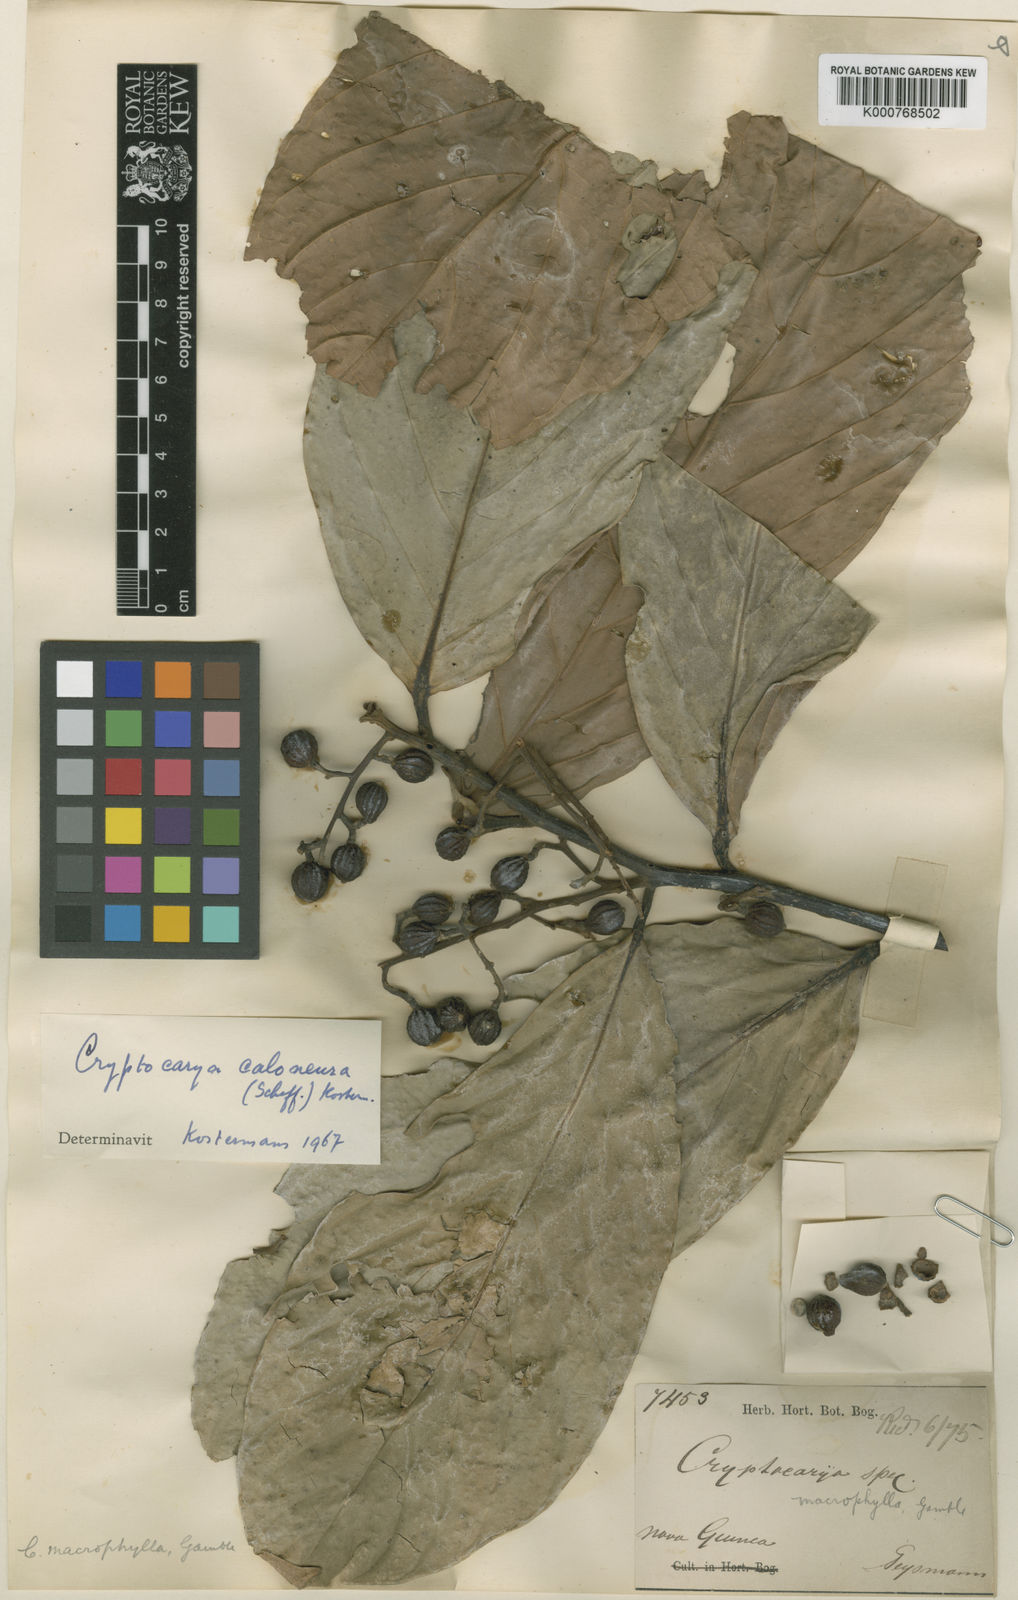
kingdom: Plantae
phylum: Tracheophyta
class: Magnoliopsida
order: Laurales
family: Lauraceae
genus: Cryptocarya
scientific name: Cryptocarya macrophylla
